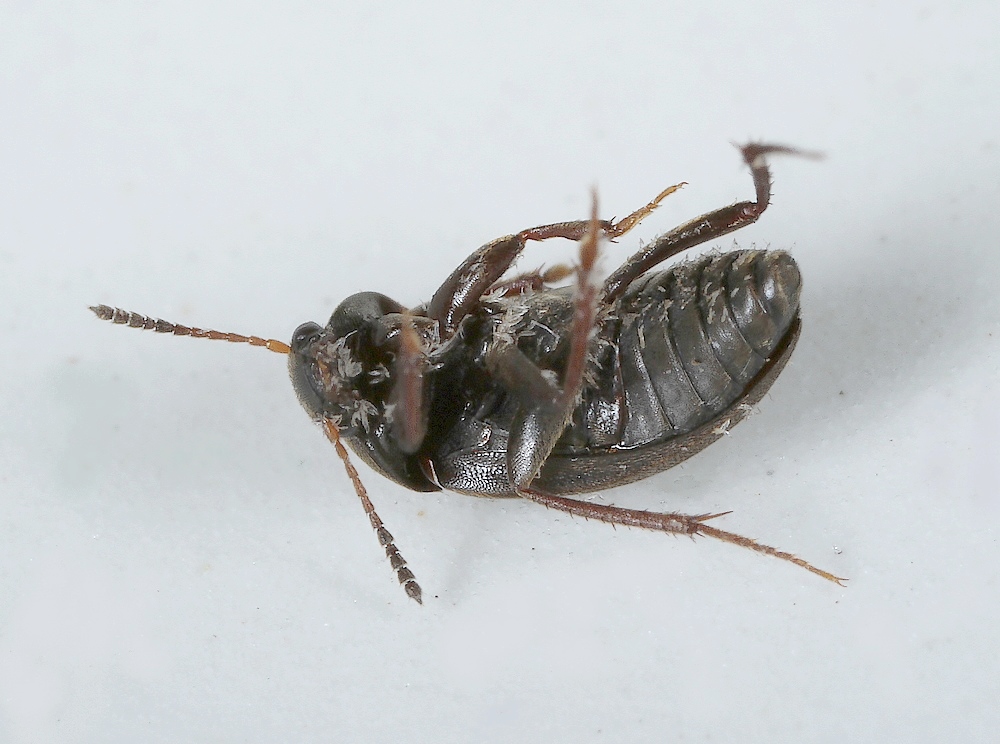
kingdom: Fungi
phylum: Ascomycota
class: Laboulbeniomycetes
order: Laboulbeniales
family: Laboulbeniaceae
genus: Asaphomyces
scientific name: Asaphomyces cholevae
